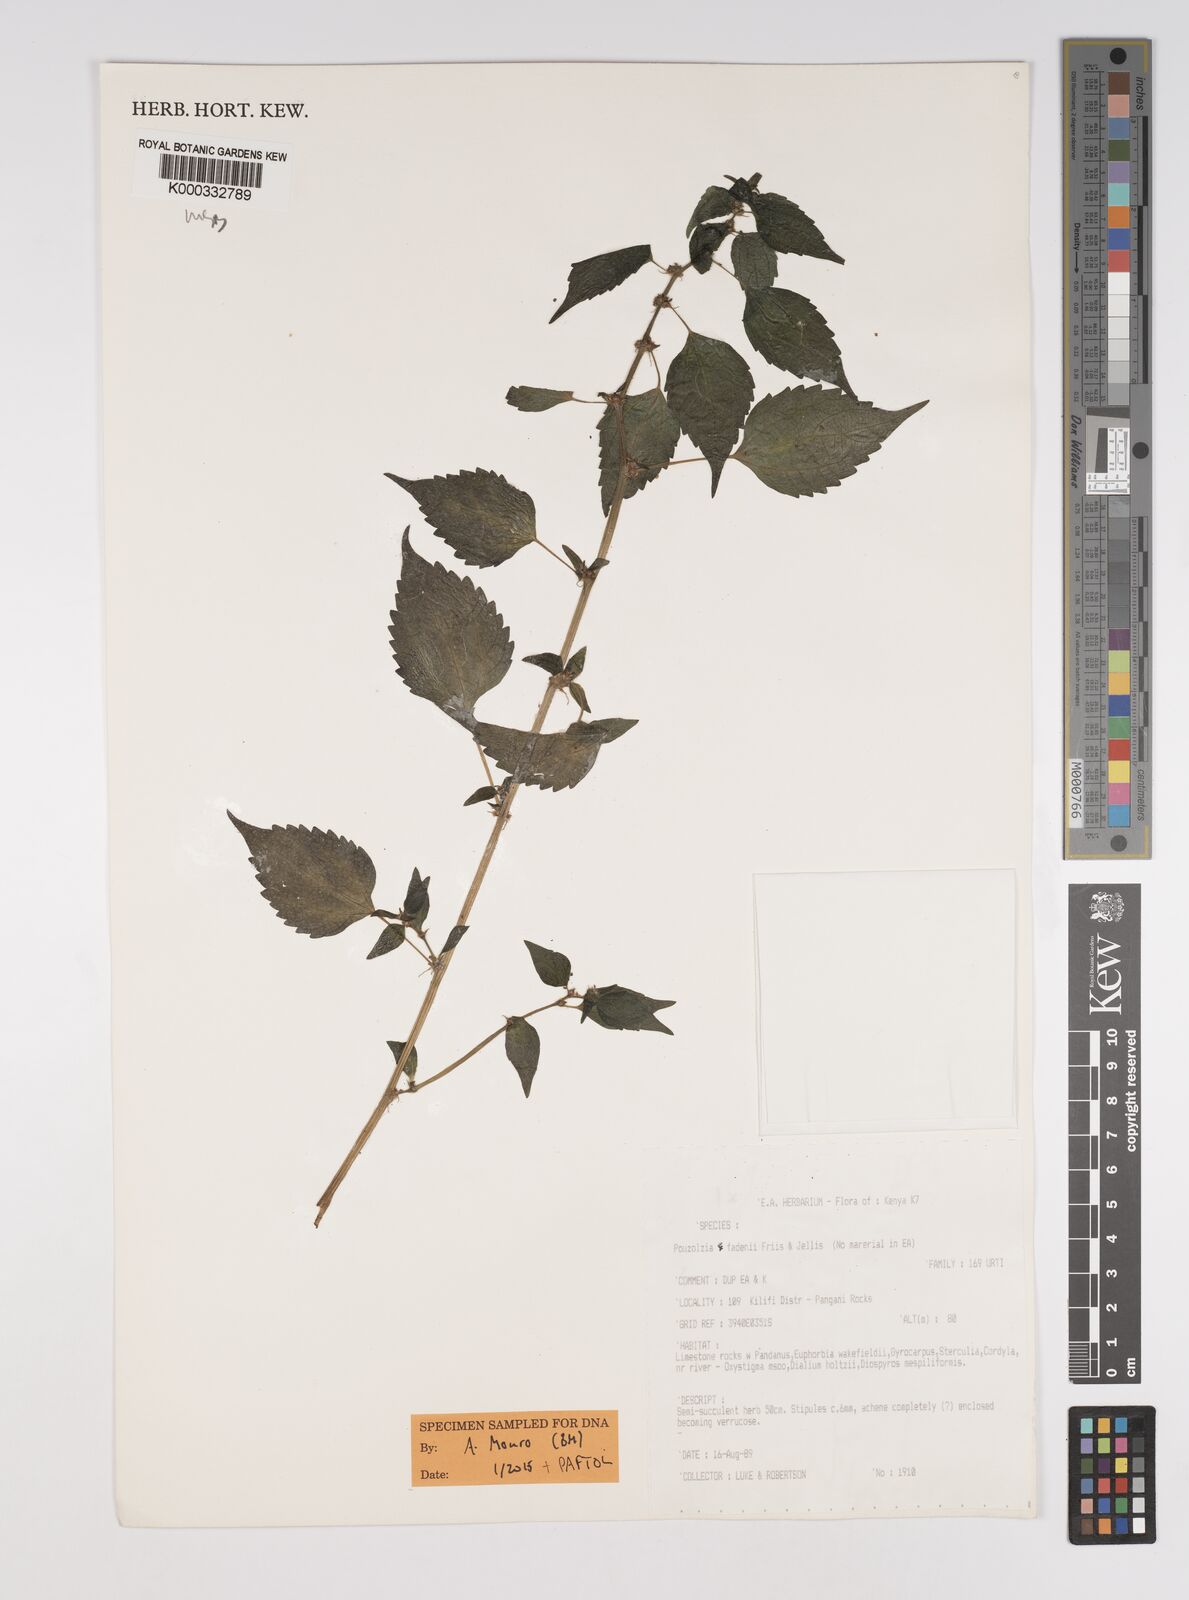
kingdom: Plantae
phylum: Tracheophyta
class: Magnoliopsida
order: Rosales
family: Urticaceae
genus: Pouzolzia
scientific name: Pouzolzia fadenii
